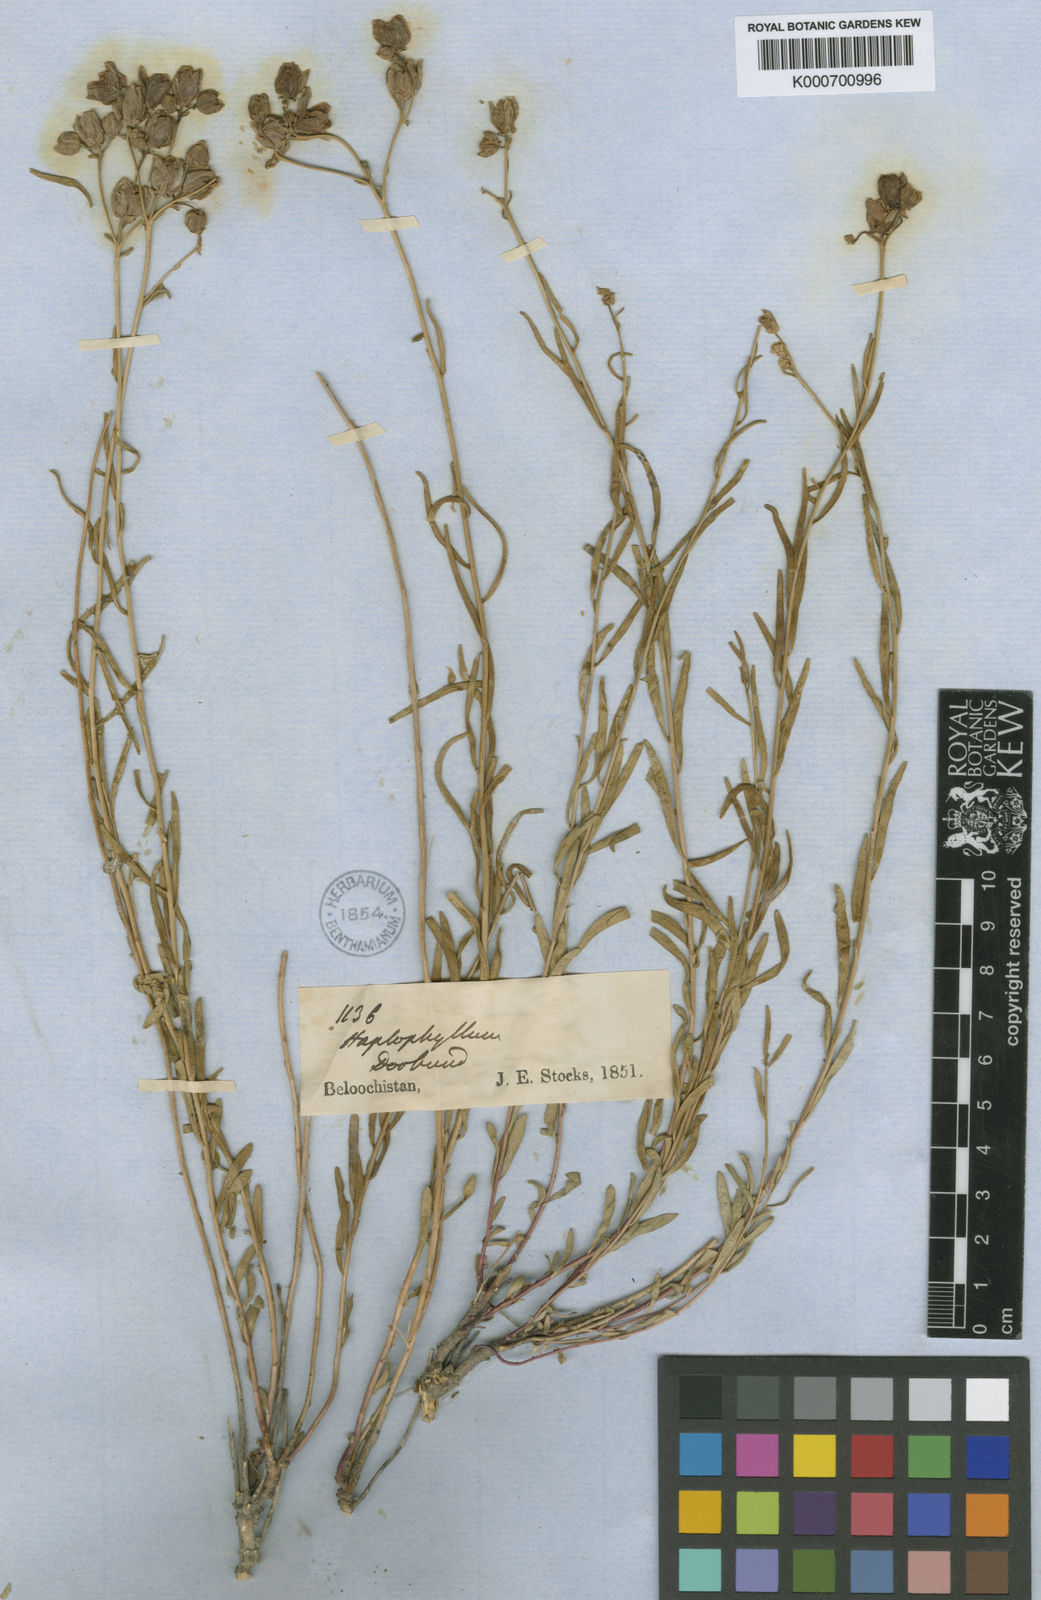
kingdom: Plantae
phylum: Tracheophyta
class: Magnoliopsida
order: Sapindales
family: Rutaceae
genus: Haplophyllum
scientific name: Haplophyllum erythraeum
